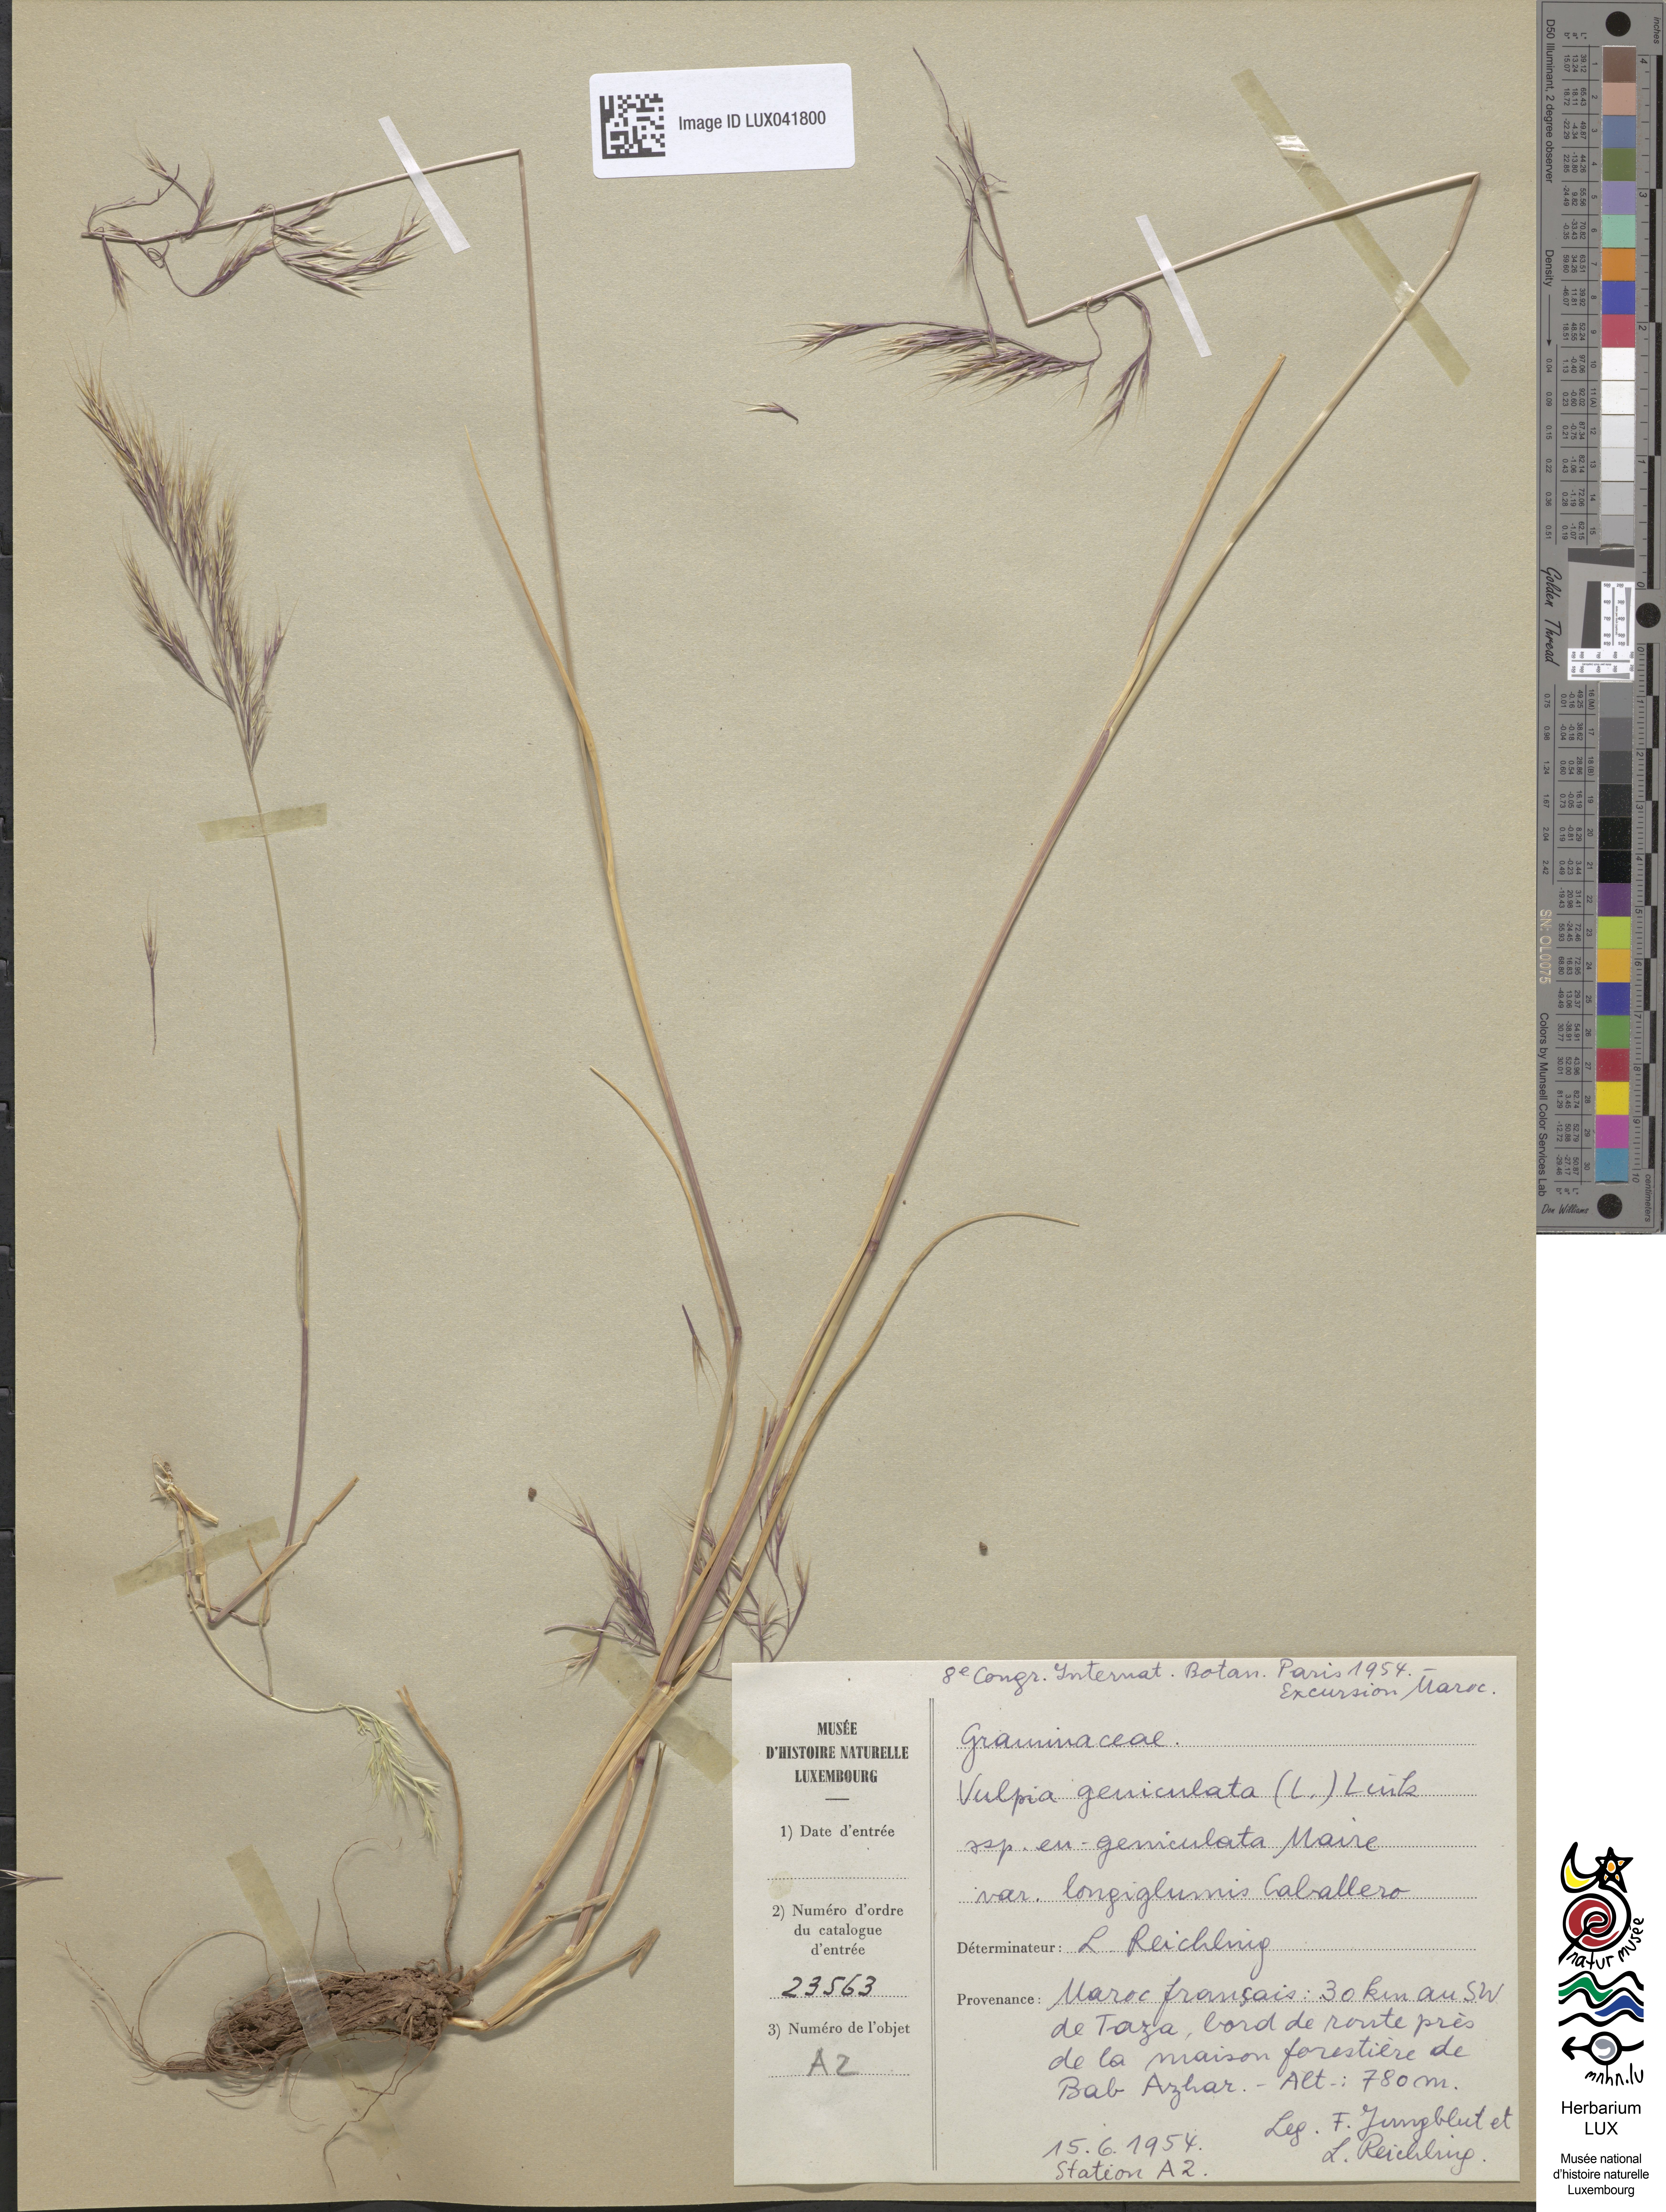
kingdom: Plantae
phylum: Tracheophyta
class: Liliopsida
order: Poales
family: Poaceae
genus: Festuca
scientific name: Festuca geniculata
